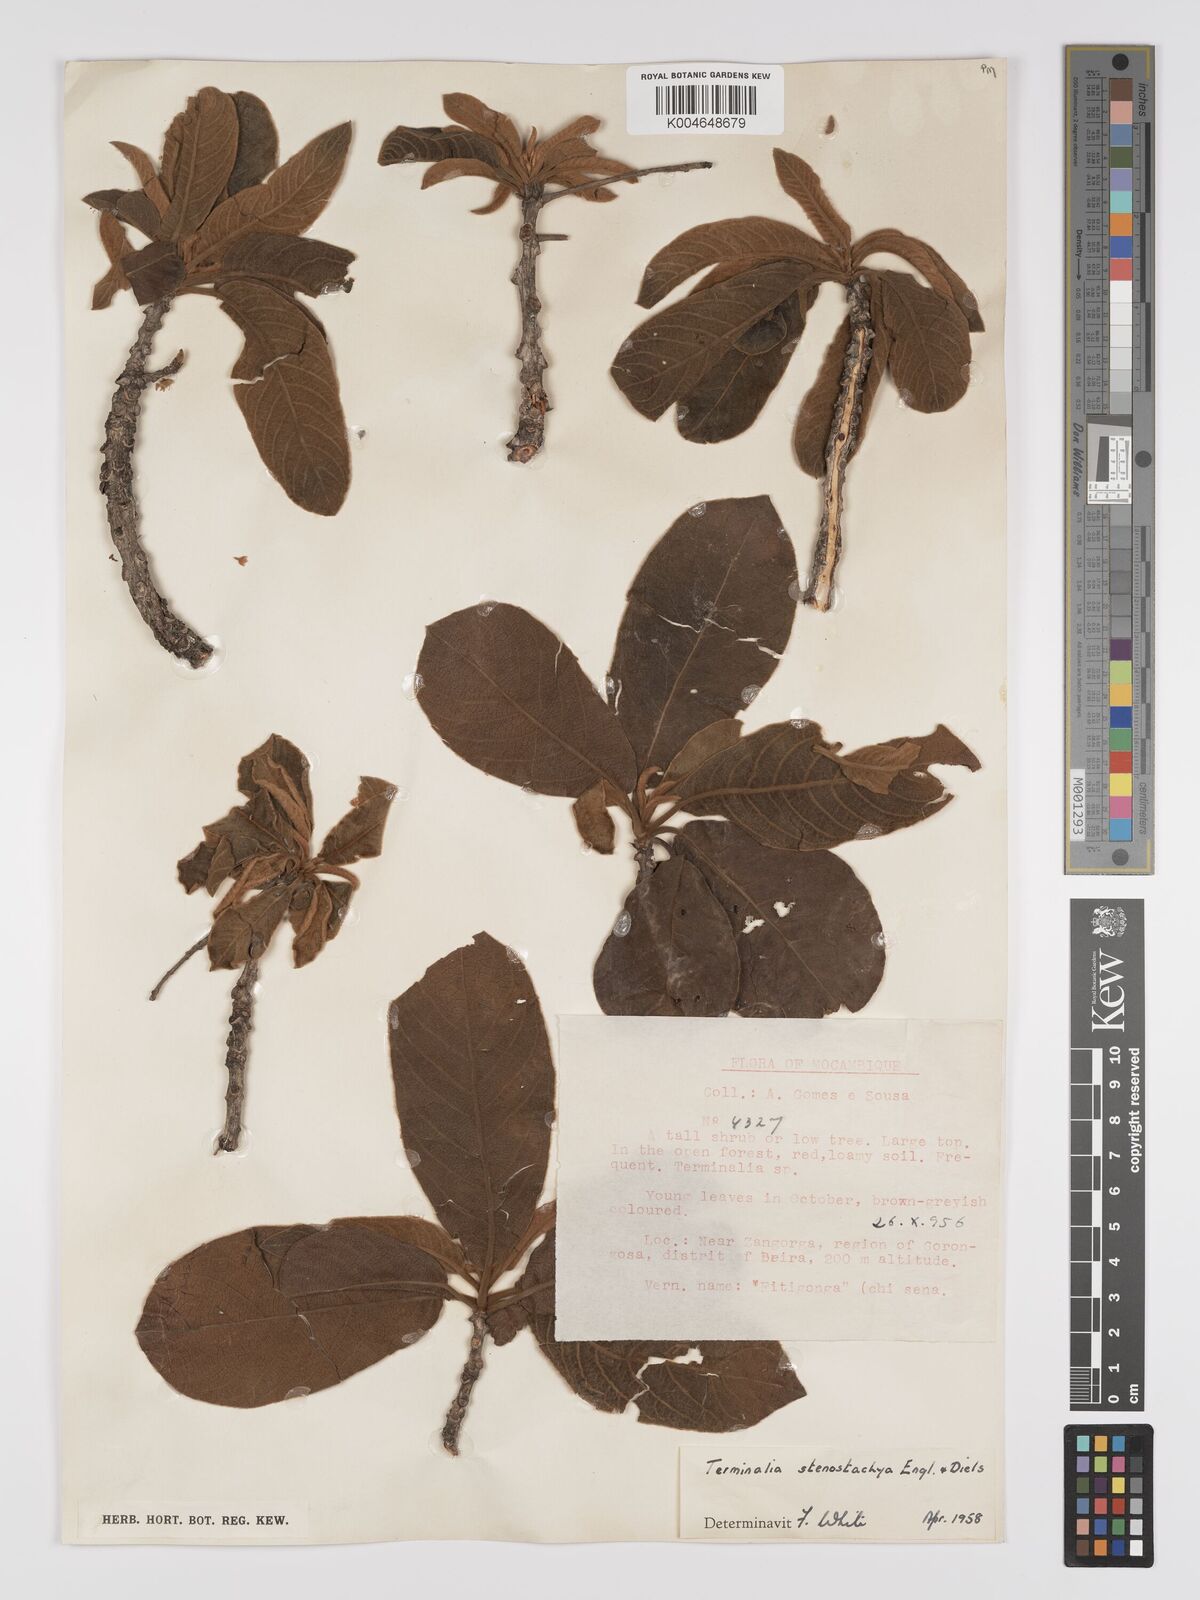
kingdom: Plantae
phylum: Tracheophyta
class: Magnoliopsida
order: Myrtales
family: Combretaceae
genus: Terminalia
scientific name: Terminalia stenostachya
